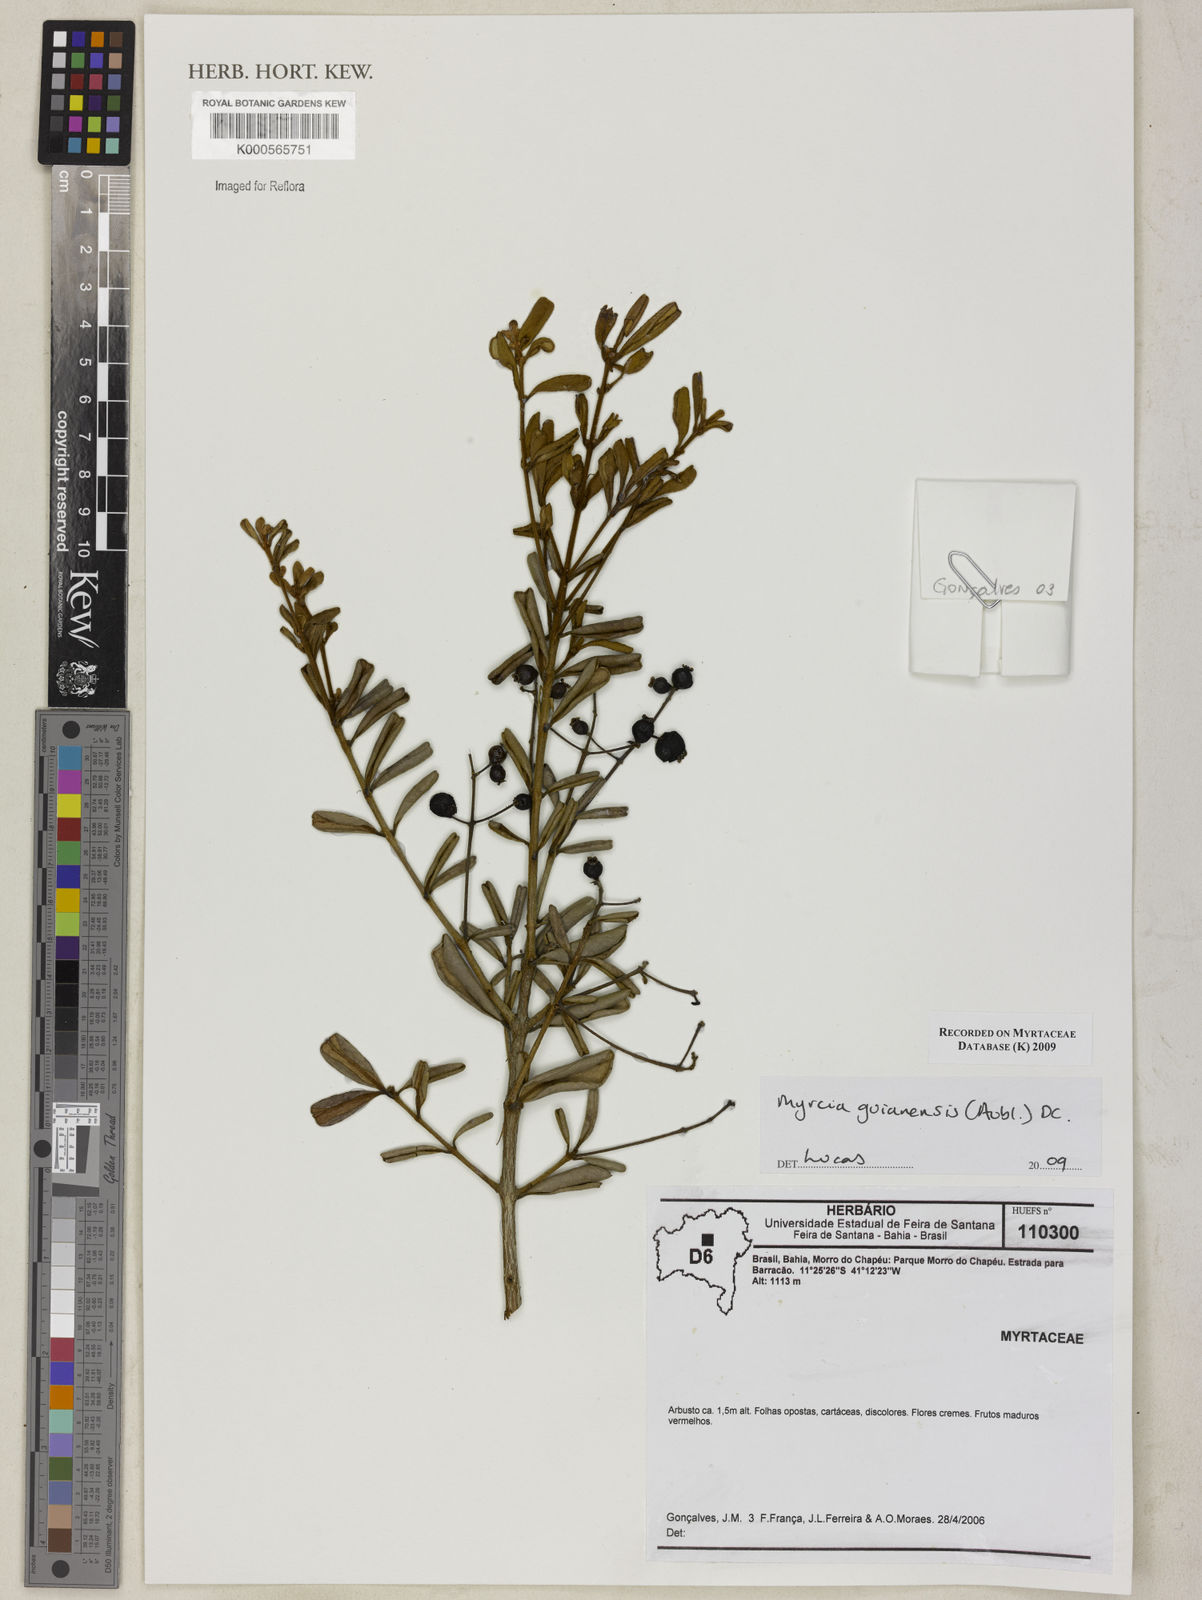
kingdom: Plantae
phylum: Tracheophyta
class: Magnoliopsida
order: Myrtales
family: Myrtaceae
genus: Myrcia
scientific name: Myrcia guianensis
